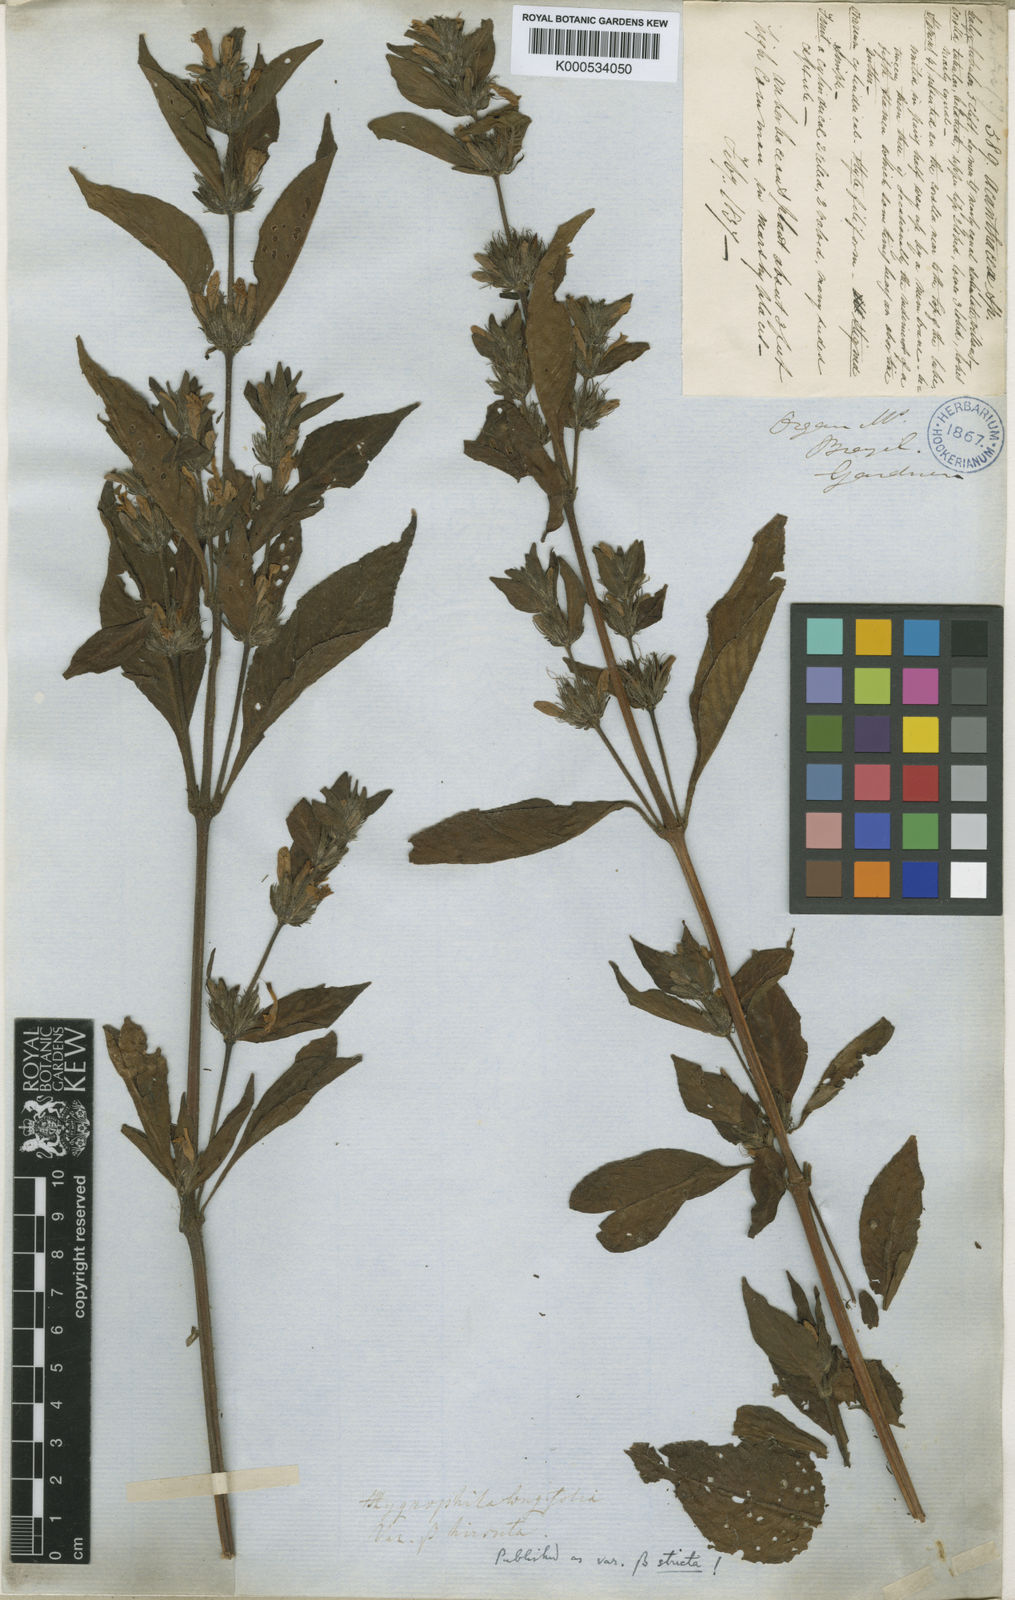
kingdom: Plantae
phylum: Tracheophyta
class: Magnoliopsida
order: Lamiales
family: Acanthaceae
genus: Hygrophila
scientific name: Hygrophila costata
